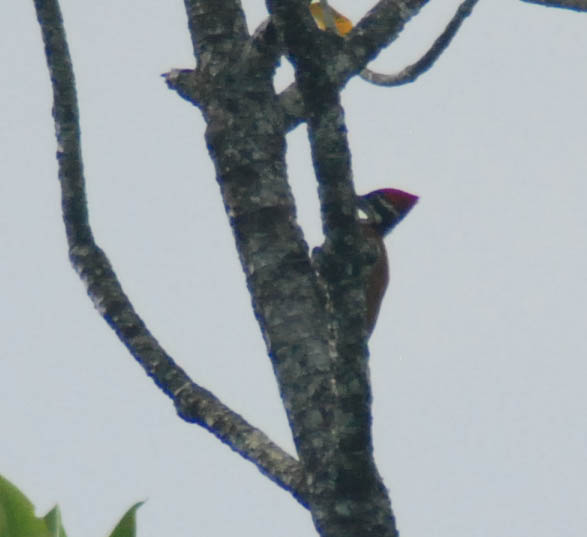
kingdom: Animalia
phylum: Chordata
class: Aves
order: Piciformes
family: Picidae
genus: Chrysocolaptes
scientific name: Chrysocolaptes lucidus
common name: Buff-spotted flameback
